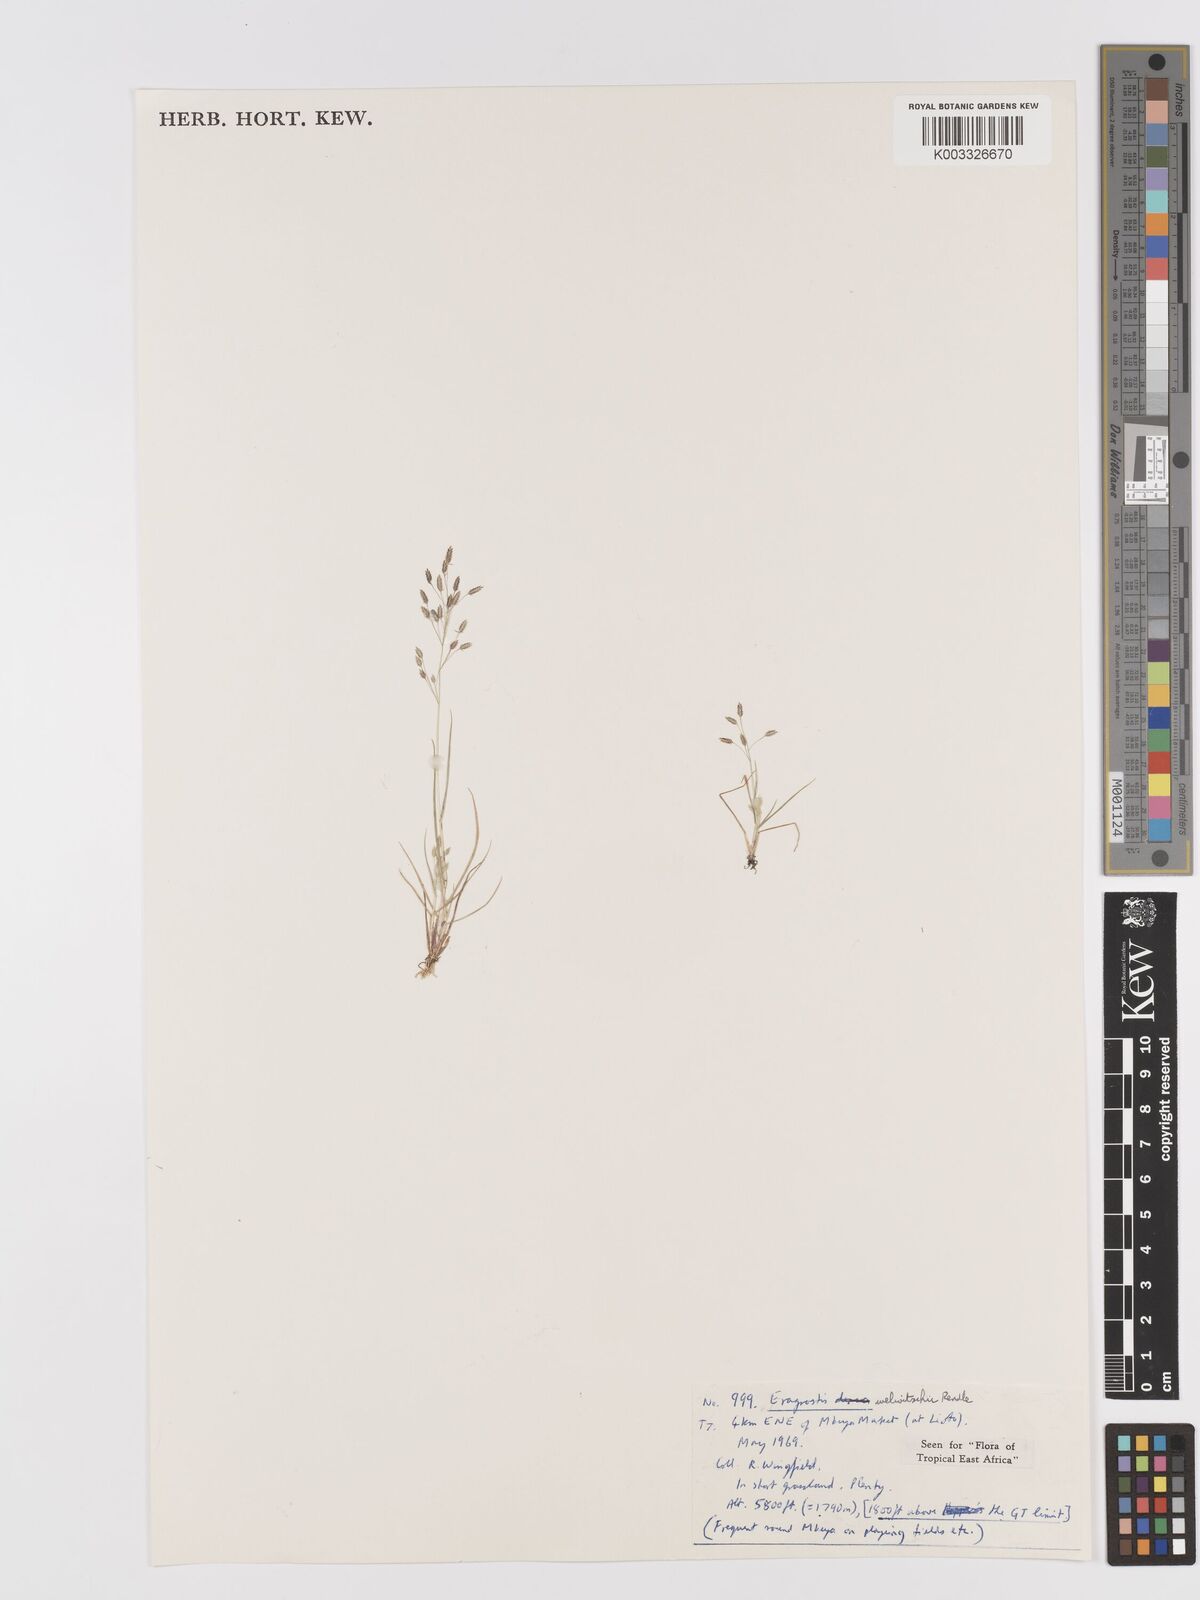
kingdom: Plantae
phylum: Tracheophyta
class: Liliopsida
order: Poales
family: Poaceae
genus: Eragrostis
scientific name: Eragrostis welwitschii
